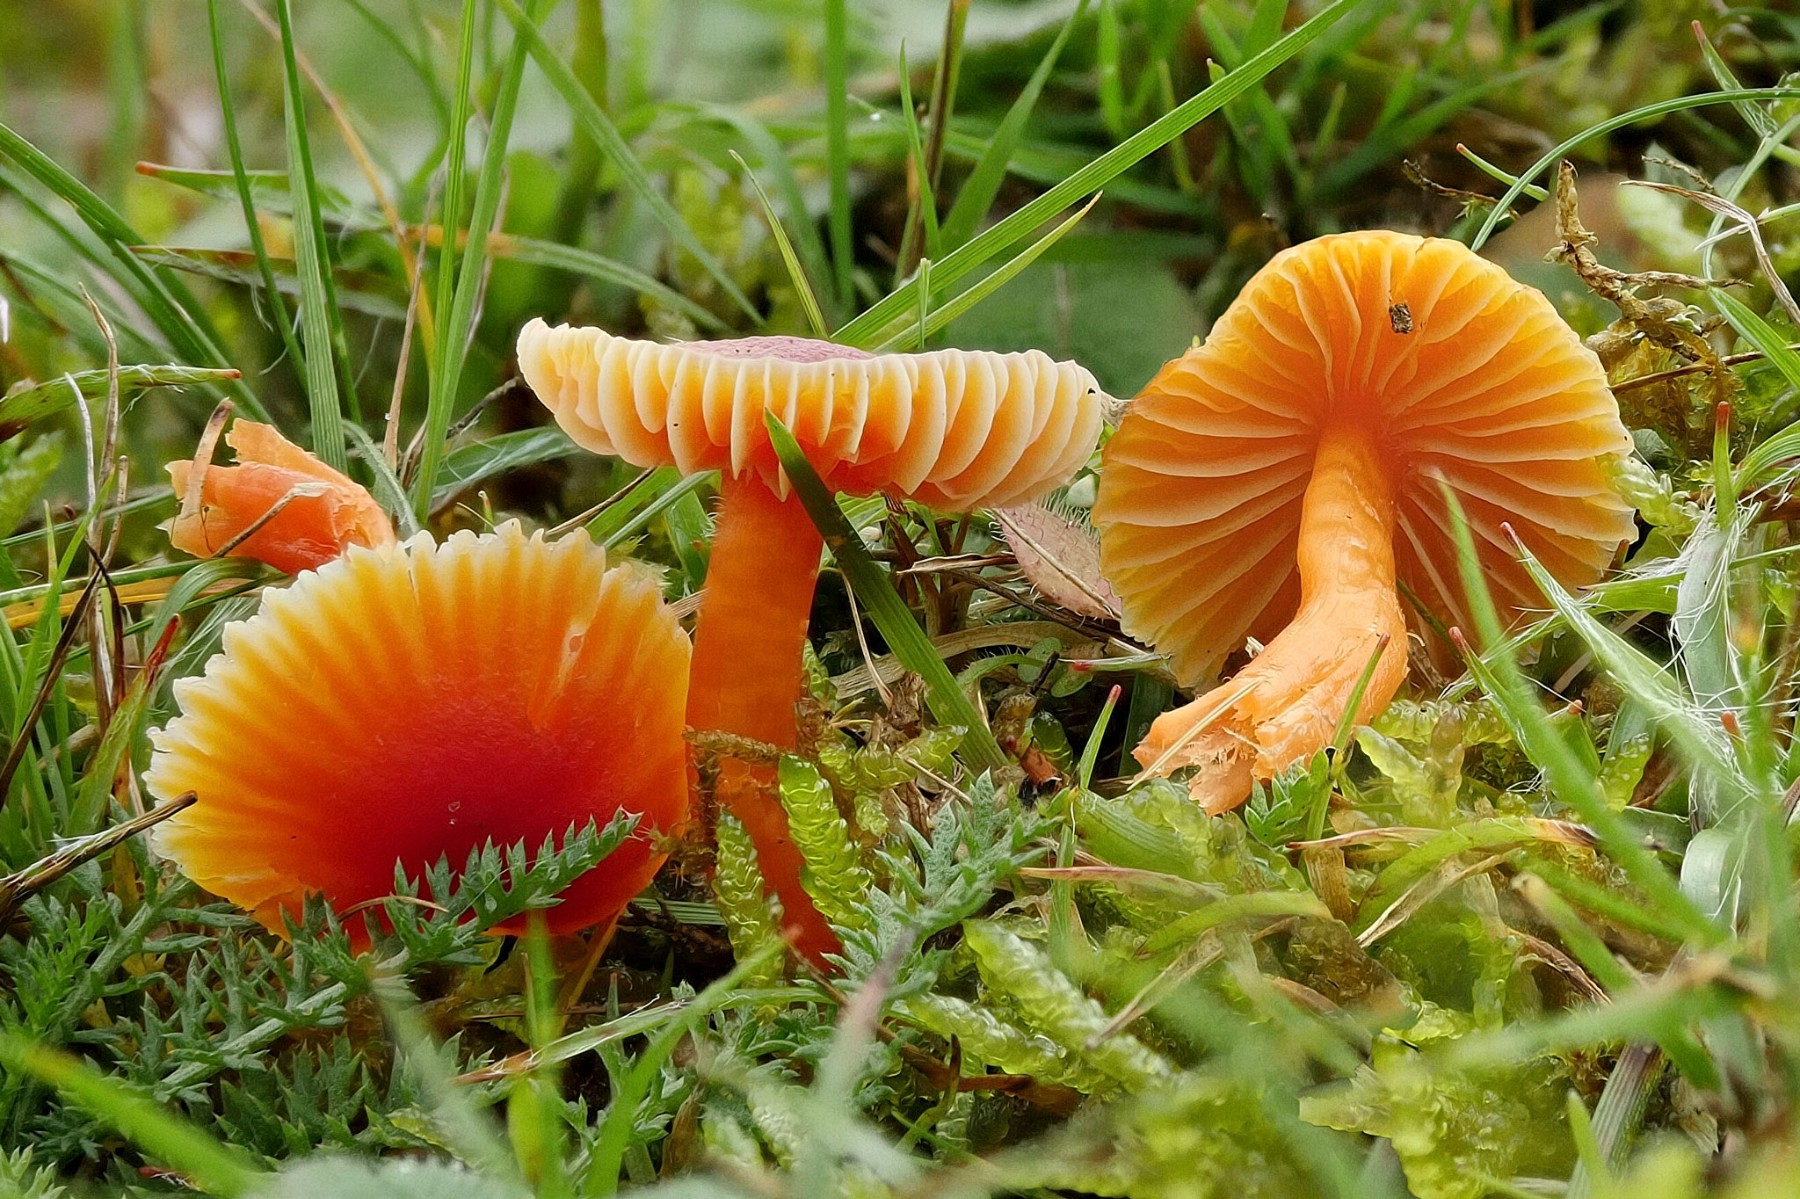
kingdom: Fungi
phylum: Basidiomycota
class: Agaricomycetes
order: Agaricales
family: Hygrophoraceae
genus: Hygrocybe
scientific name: Hygrocybe miniata
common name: mønje-vokshat
